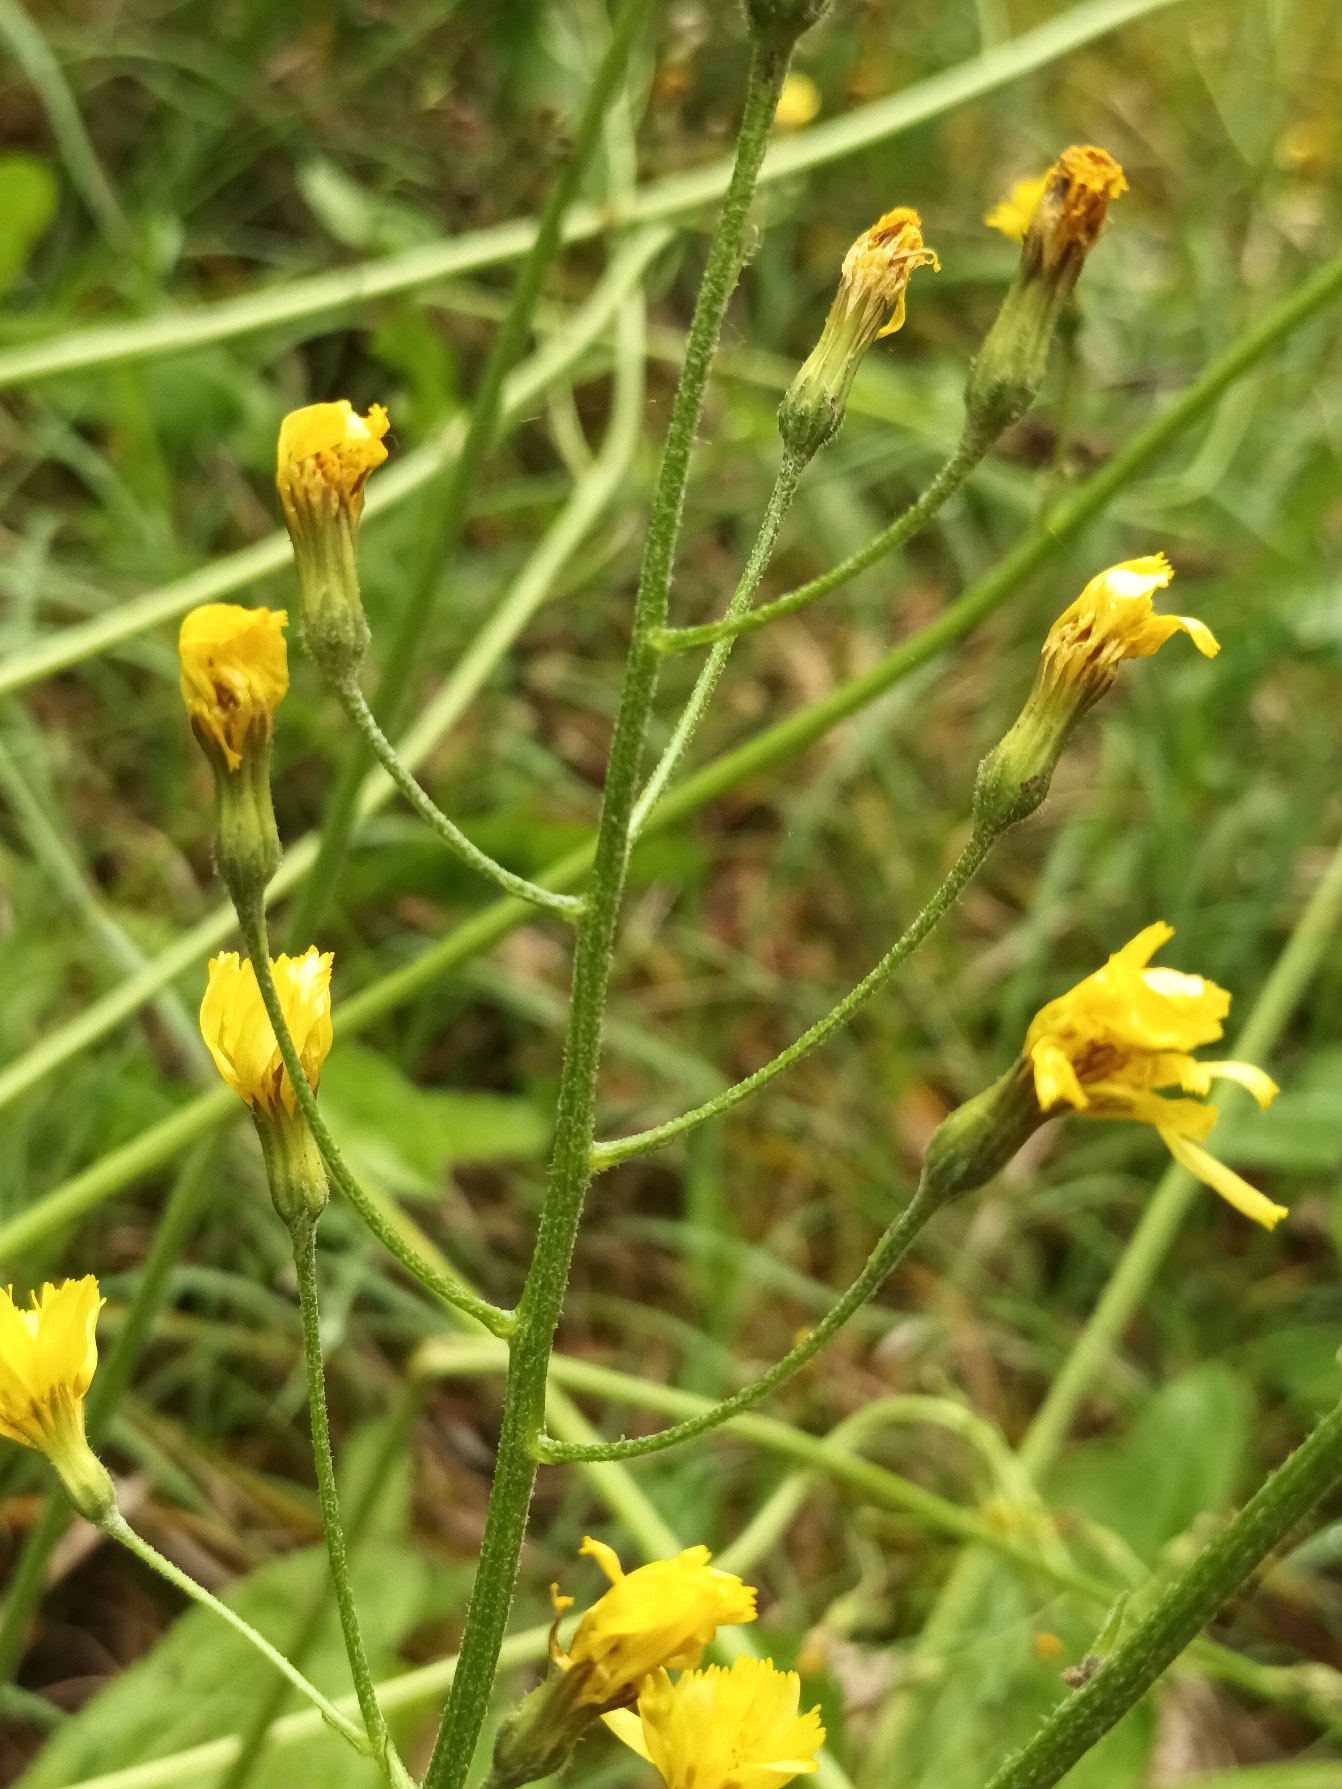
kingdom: Plantae
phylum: Tracheophyta
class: Magnoliopsida
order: Asterales
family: Asteraceae
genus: Crepis
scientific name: Crepis praemorsa
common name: Afbidt høgeskæg
